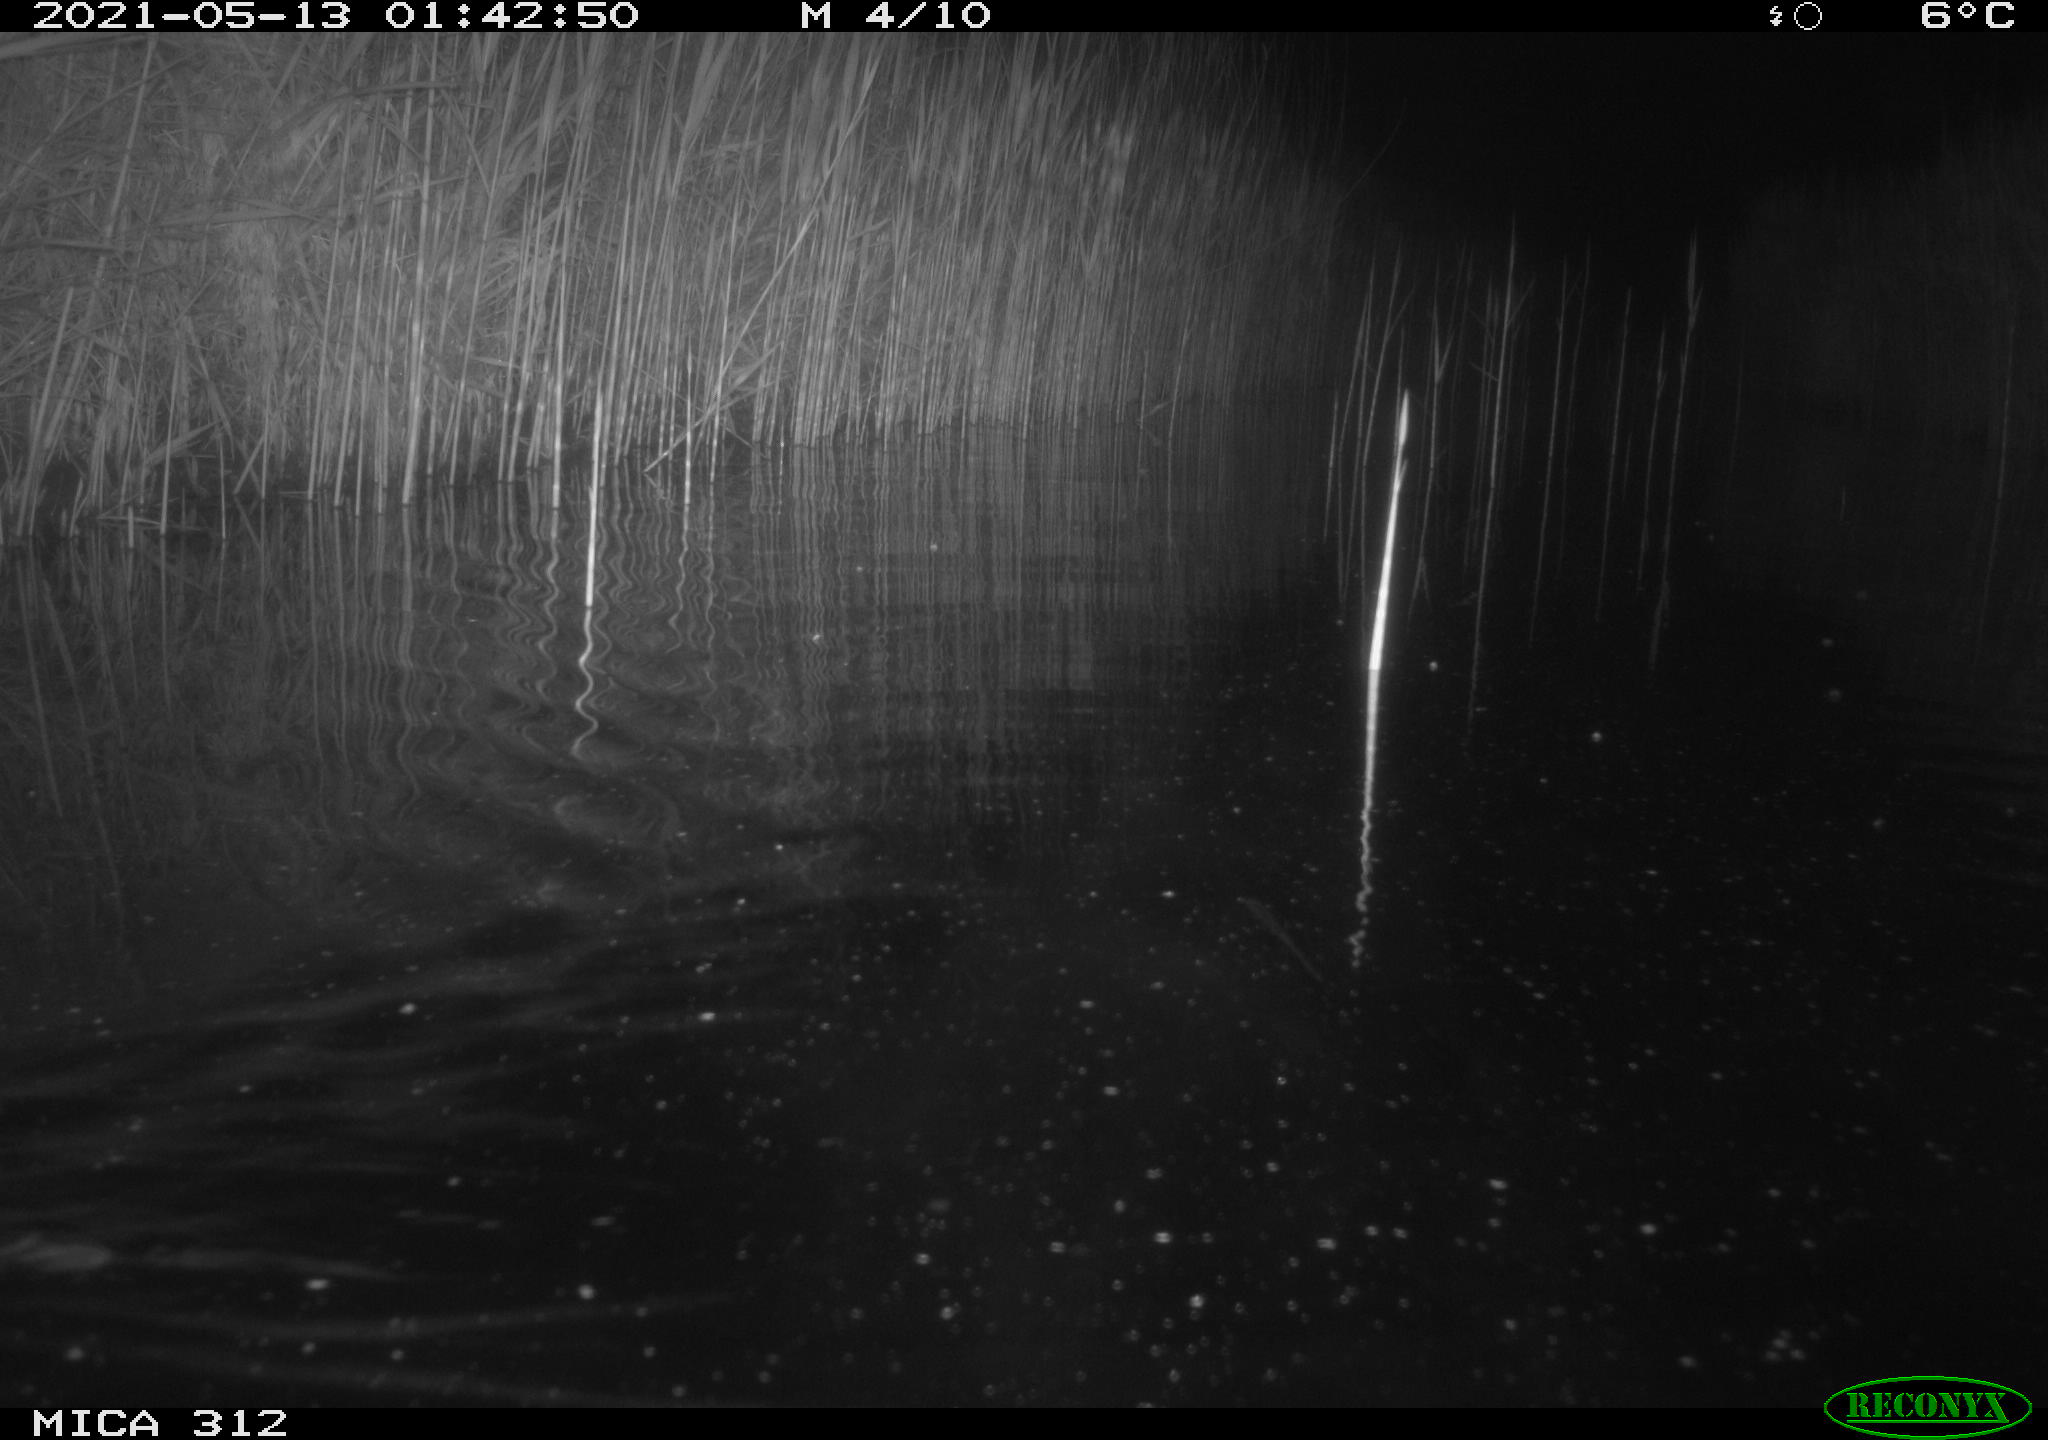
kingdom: Animalia
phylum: Chordata
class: Mammalia
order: Rodentia
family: Muridae
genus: Rattus
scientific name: Rattus norvegicus
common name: Brown rat
